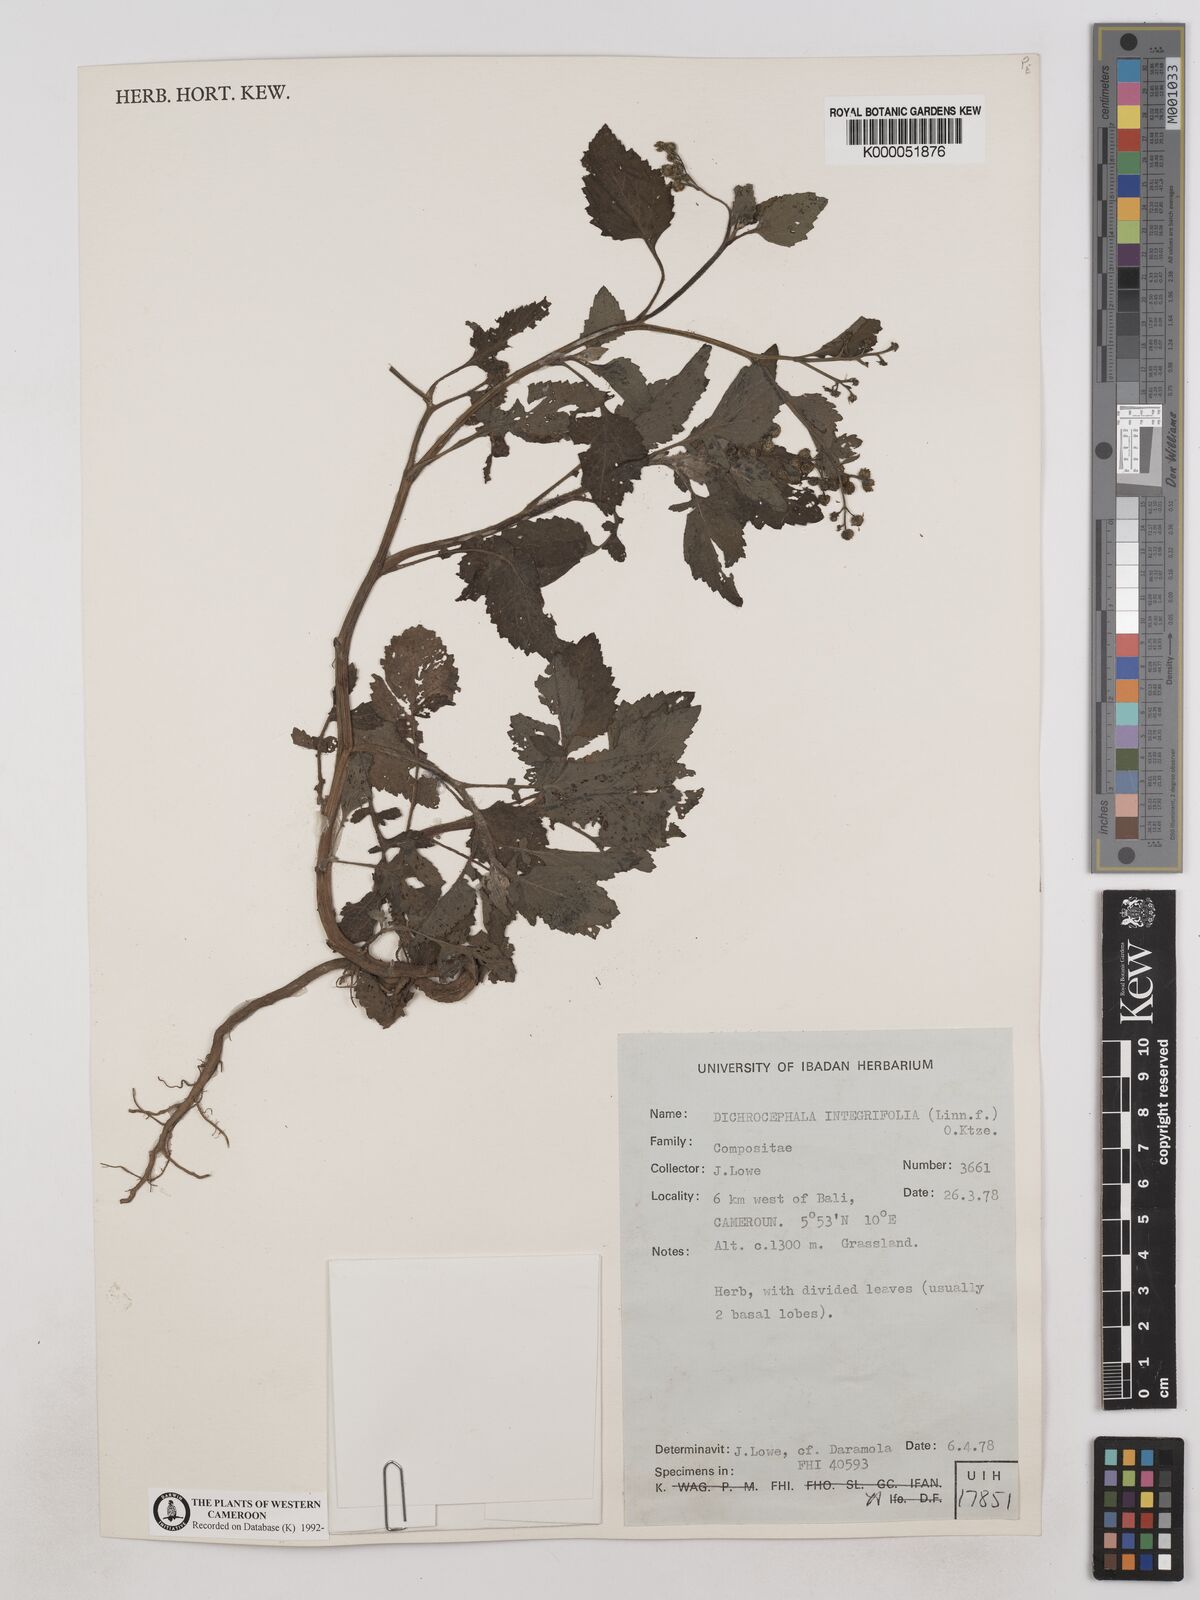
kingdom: Plantae
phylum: Tracheophyta
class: Magnoliopsida
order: Asterales
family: Asteraceae
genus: Dichrocephala
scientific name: Dichrocephala integrifolia
